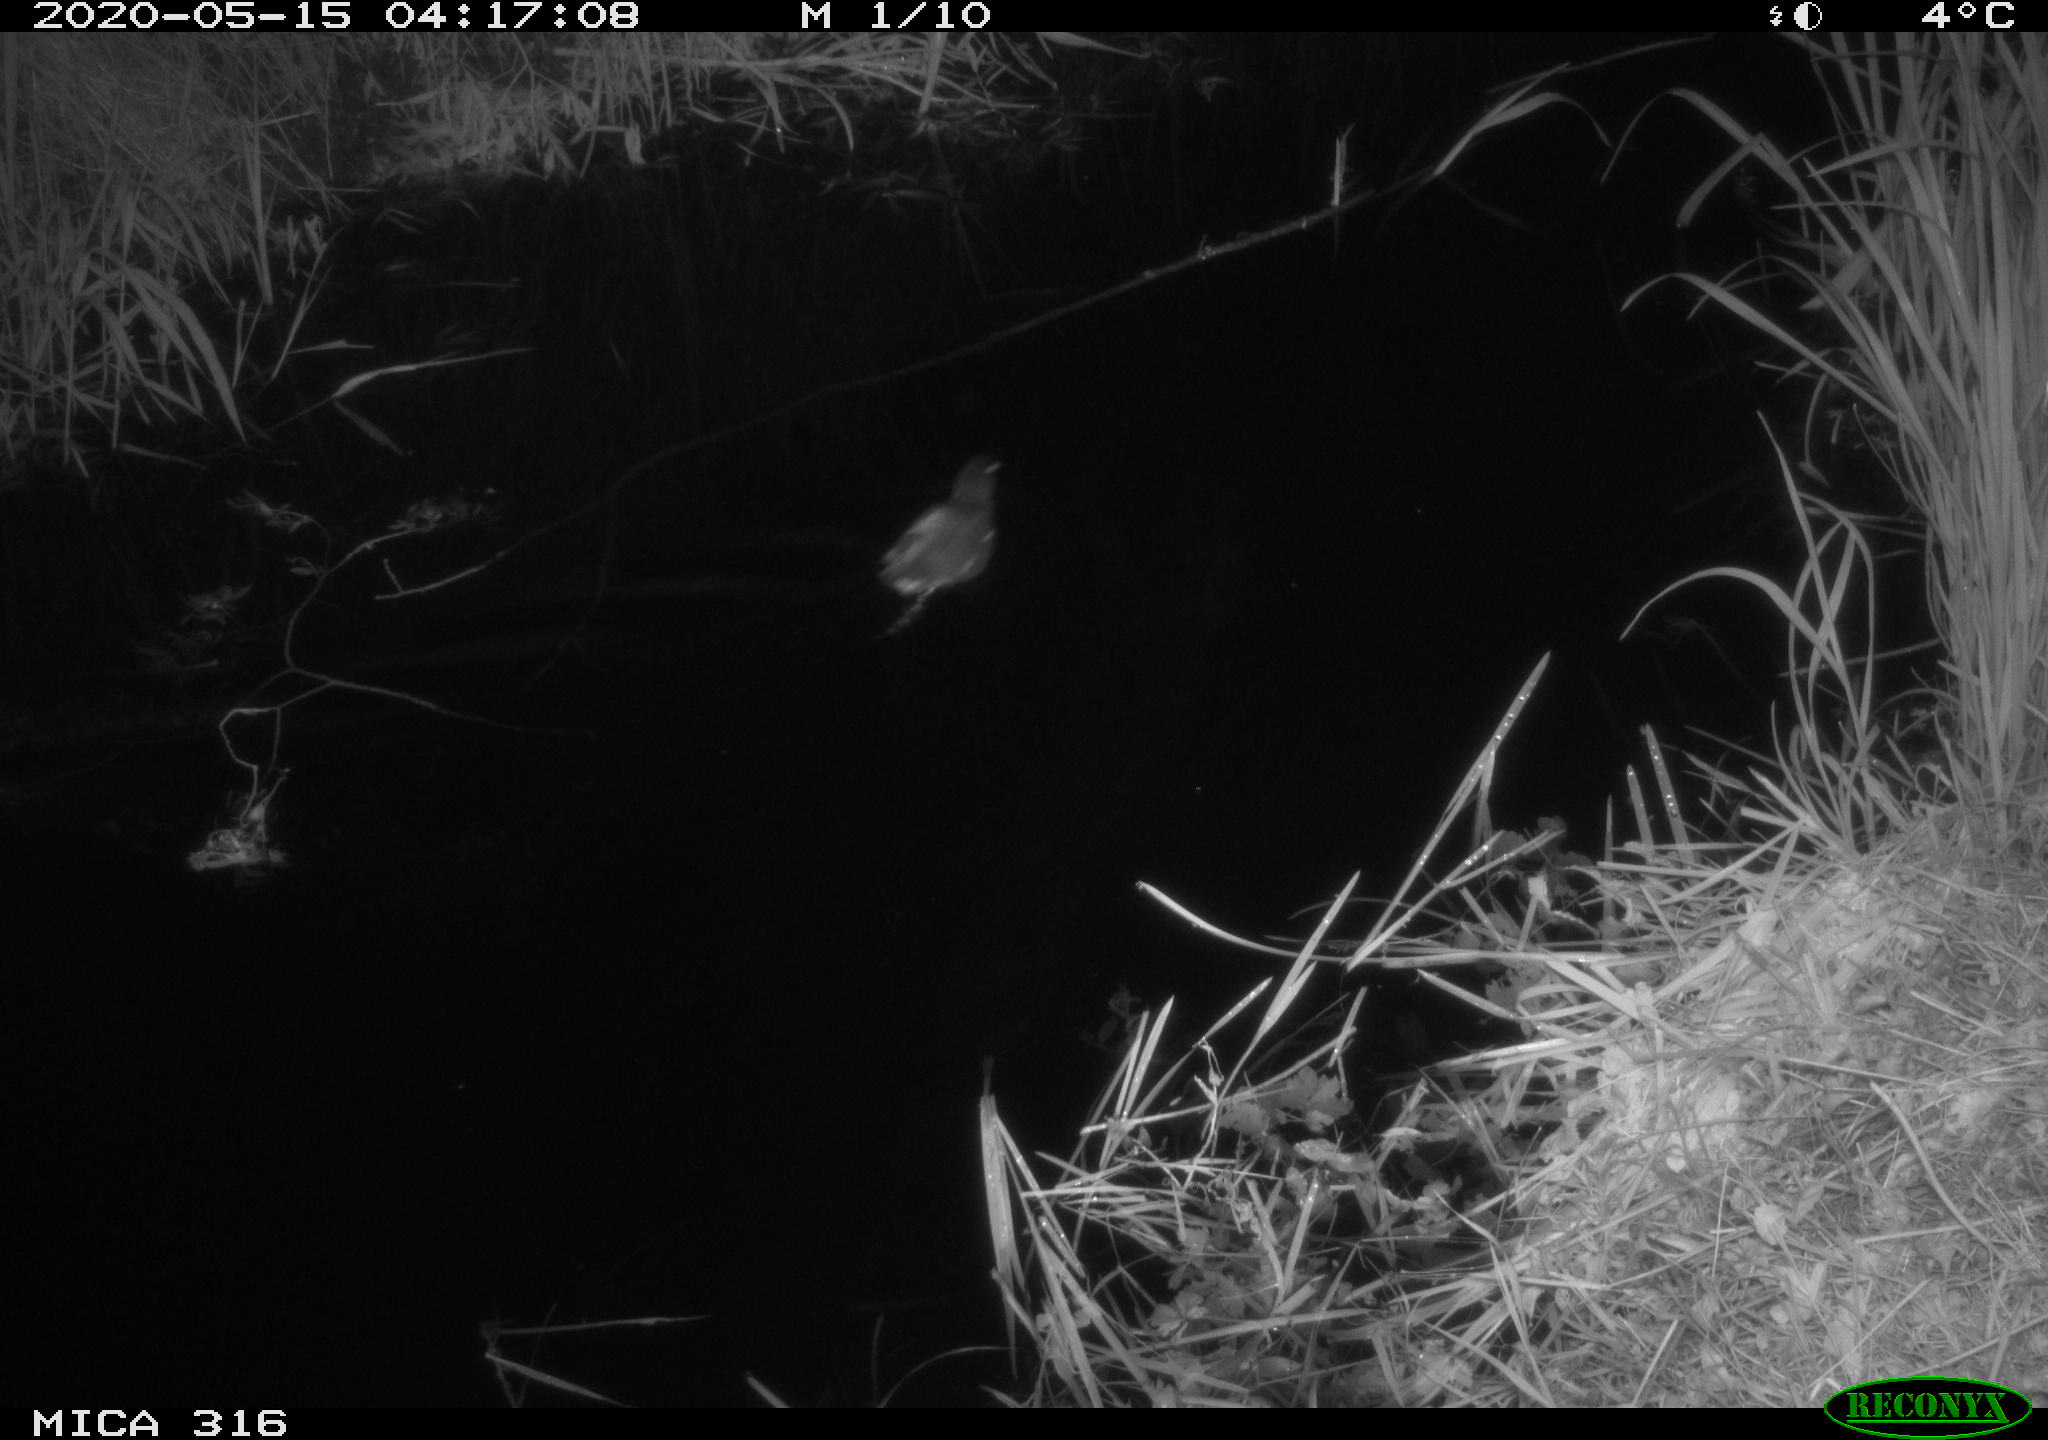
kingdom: Animalia
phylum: Chordata
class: Aves
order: Gruiformes
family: Rallidae
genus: Gallinula
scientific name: Gallinula chloropus
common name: Common moorhen
